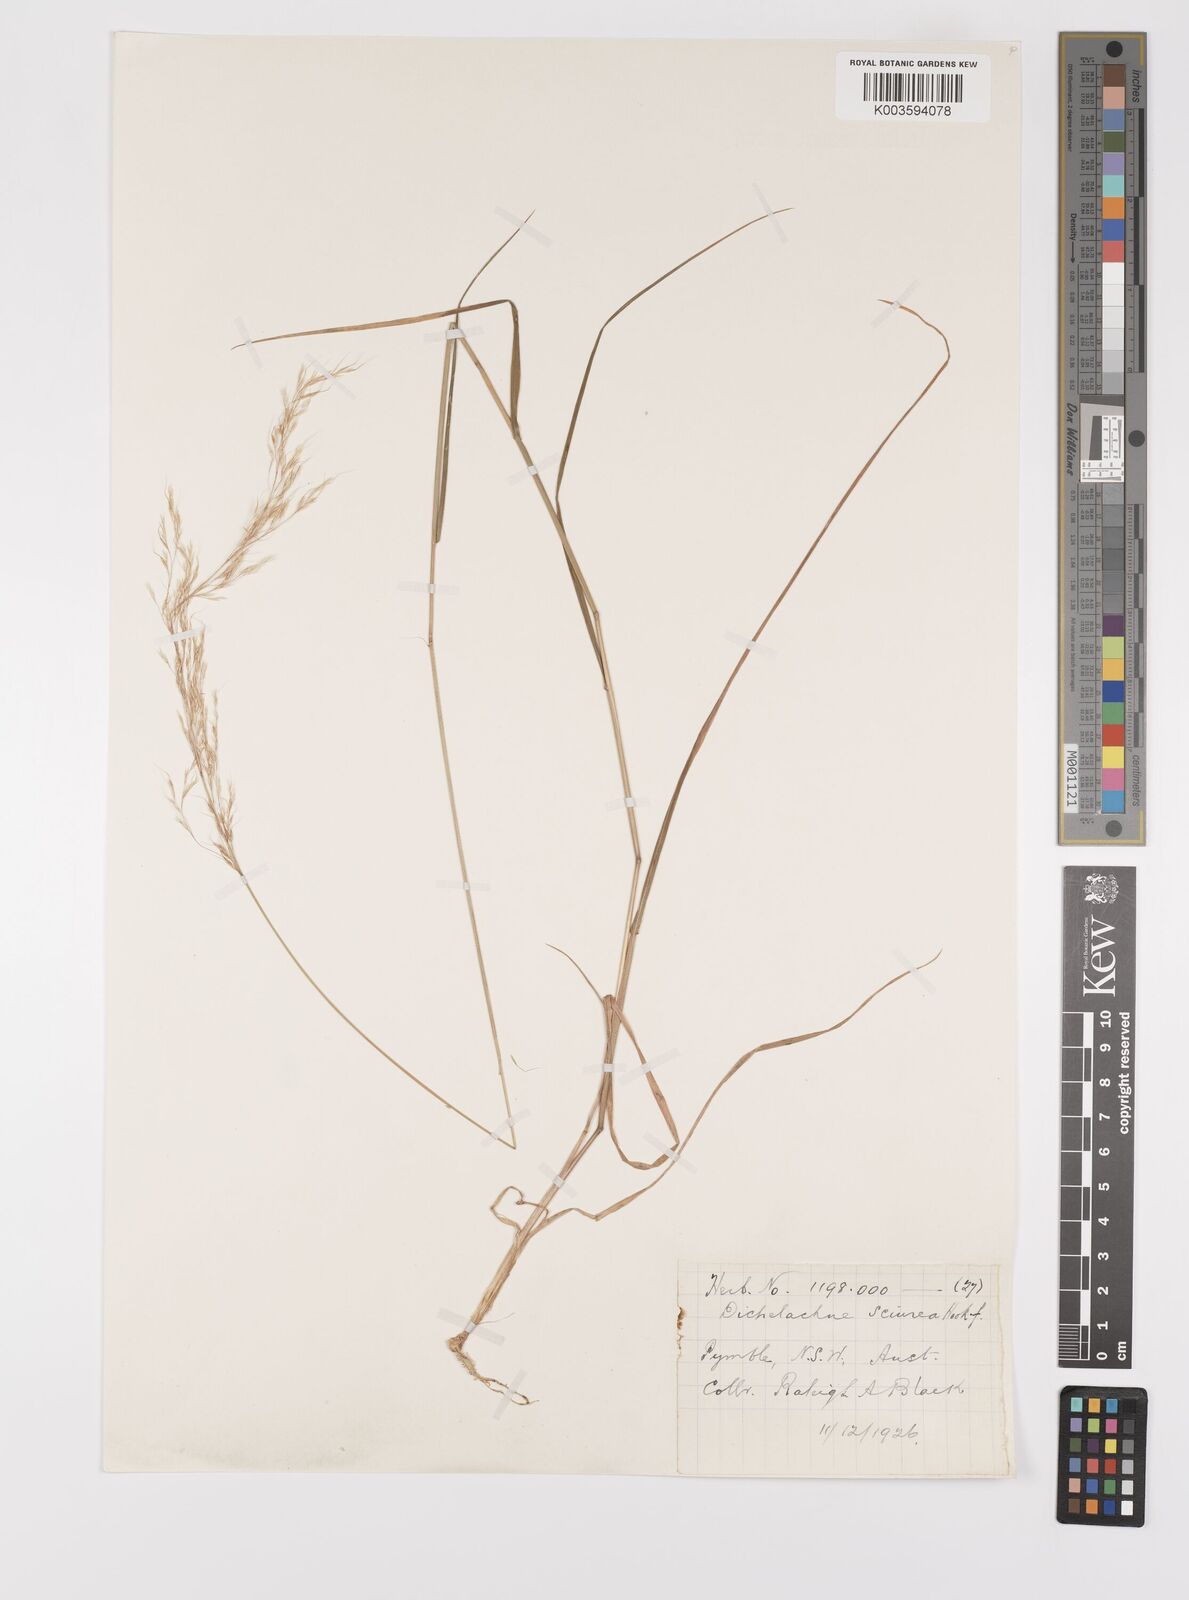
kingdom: Plantae
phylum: Tracheophyta
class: Liliopsida
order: Poales
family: Poaceae
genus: Dichelachne
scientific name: Dichelachne rara
